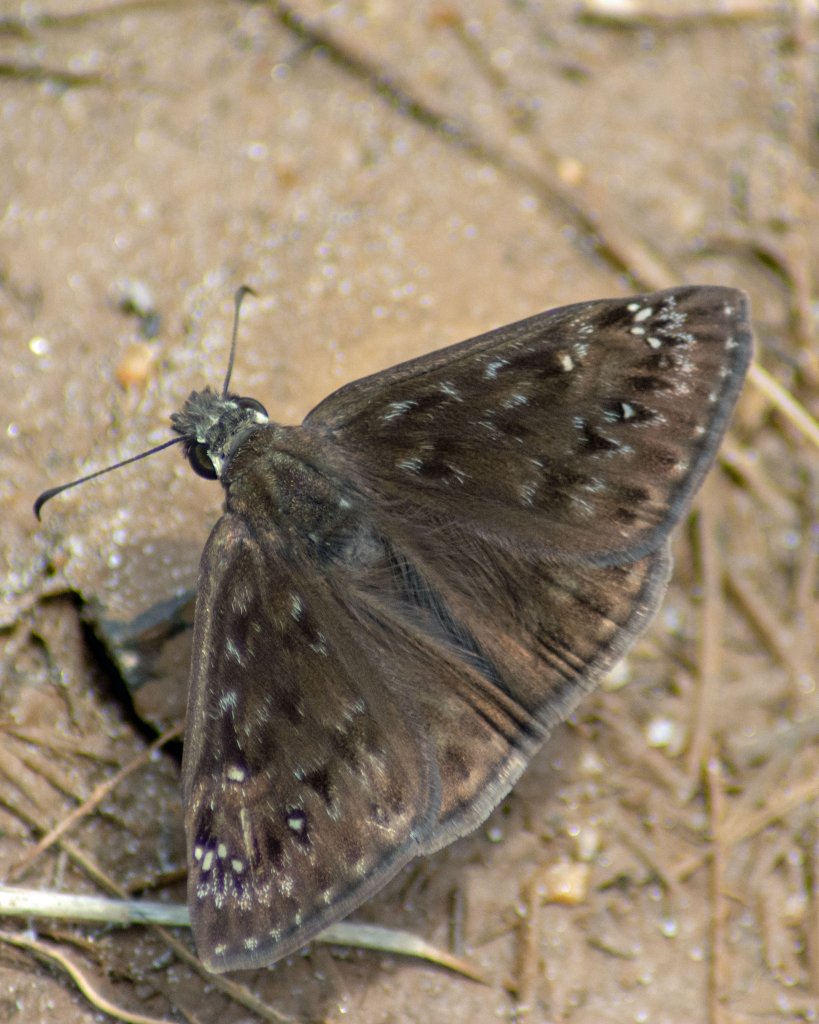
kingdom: Animalia
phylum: Arthropoda
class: Insecta
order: Lepidoptera
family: Hesperiidae
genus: Gesta
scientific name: Gesta
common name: Horace's Duskywing
